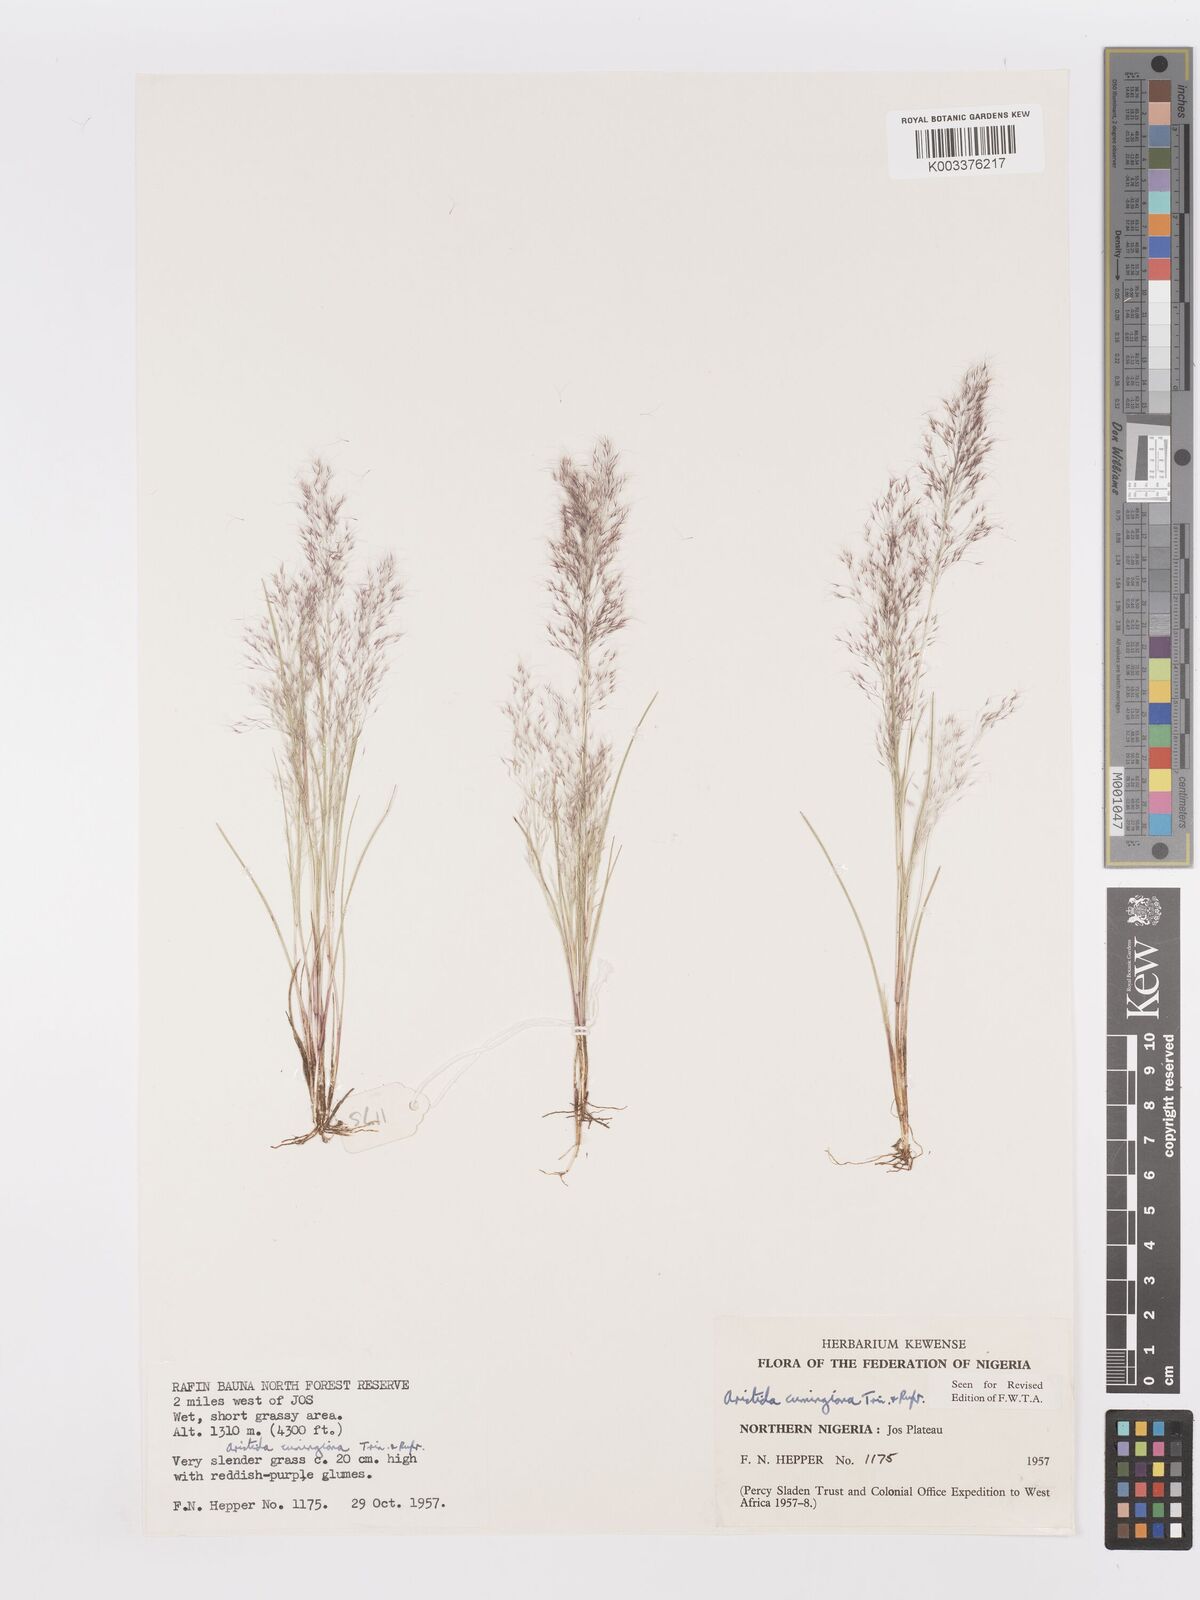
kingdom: Plantae
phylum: Tracheophyta
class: Liliopsida
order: Poales
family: Poaceae
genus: Aristida
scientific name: Aristida cumingiana
